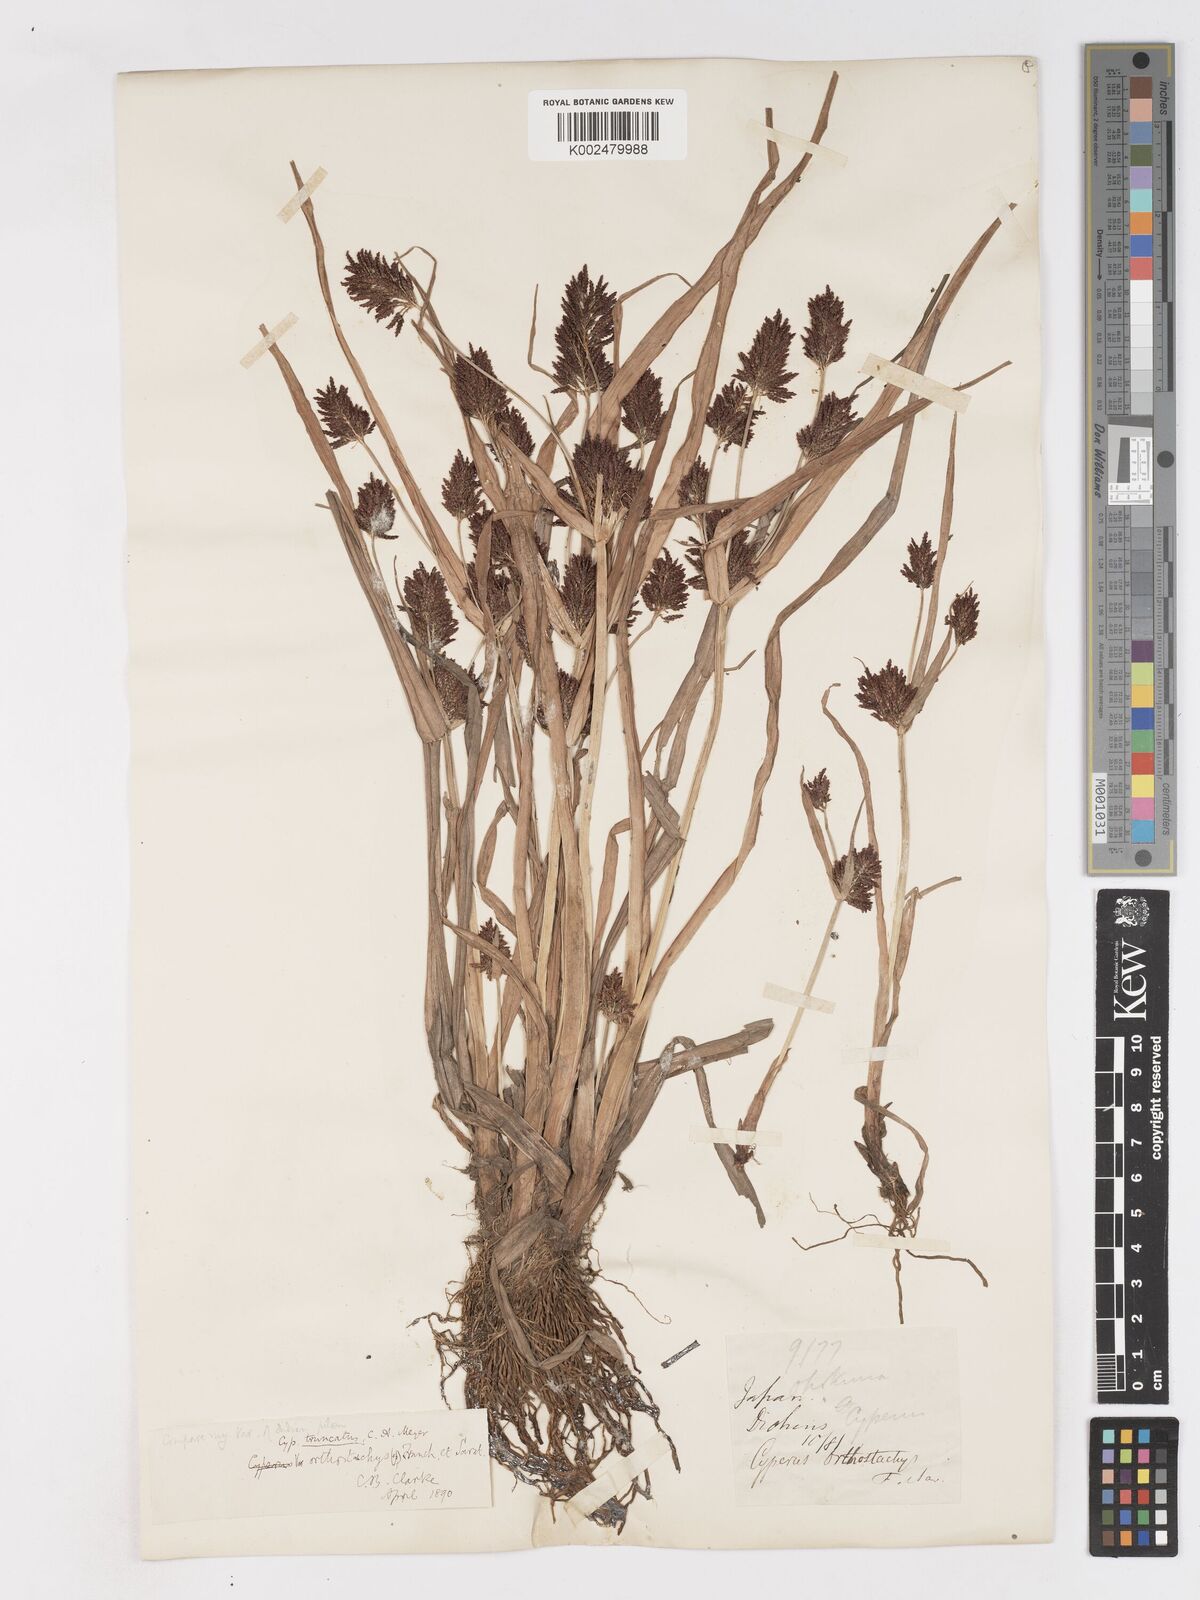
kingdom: Plantae
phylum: Tracheophyta
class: Liliopsida
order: Poales
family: Cyperaceae
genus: Cyperus
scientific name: Cyperus schimperianus
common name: Schimper flatsedge
